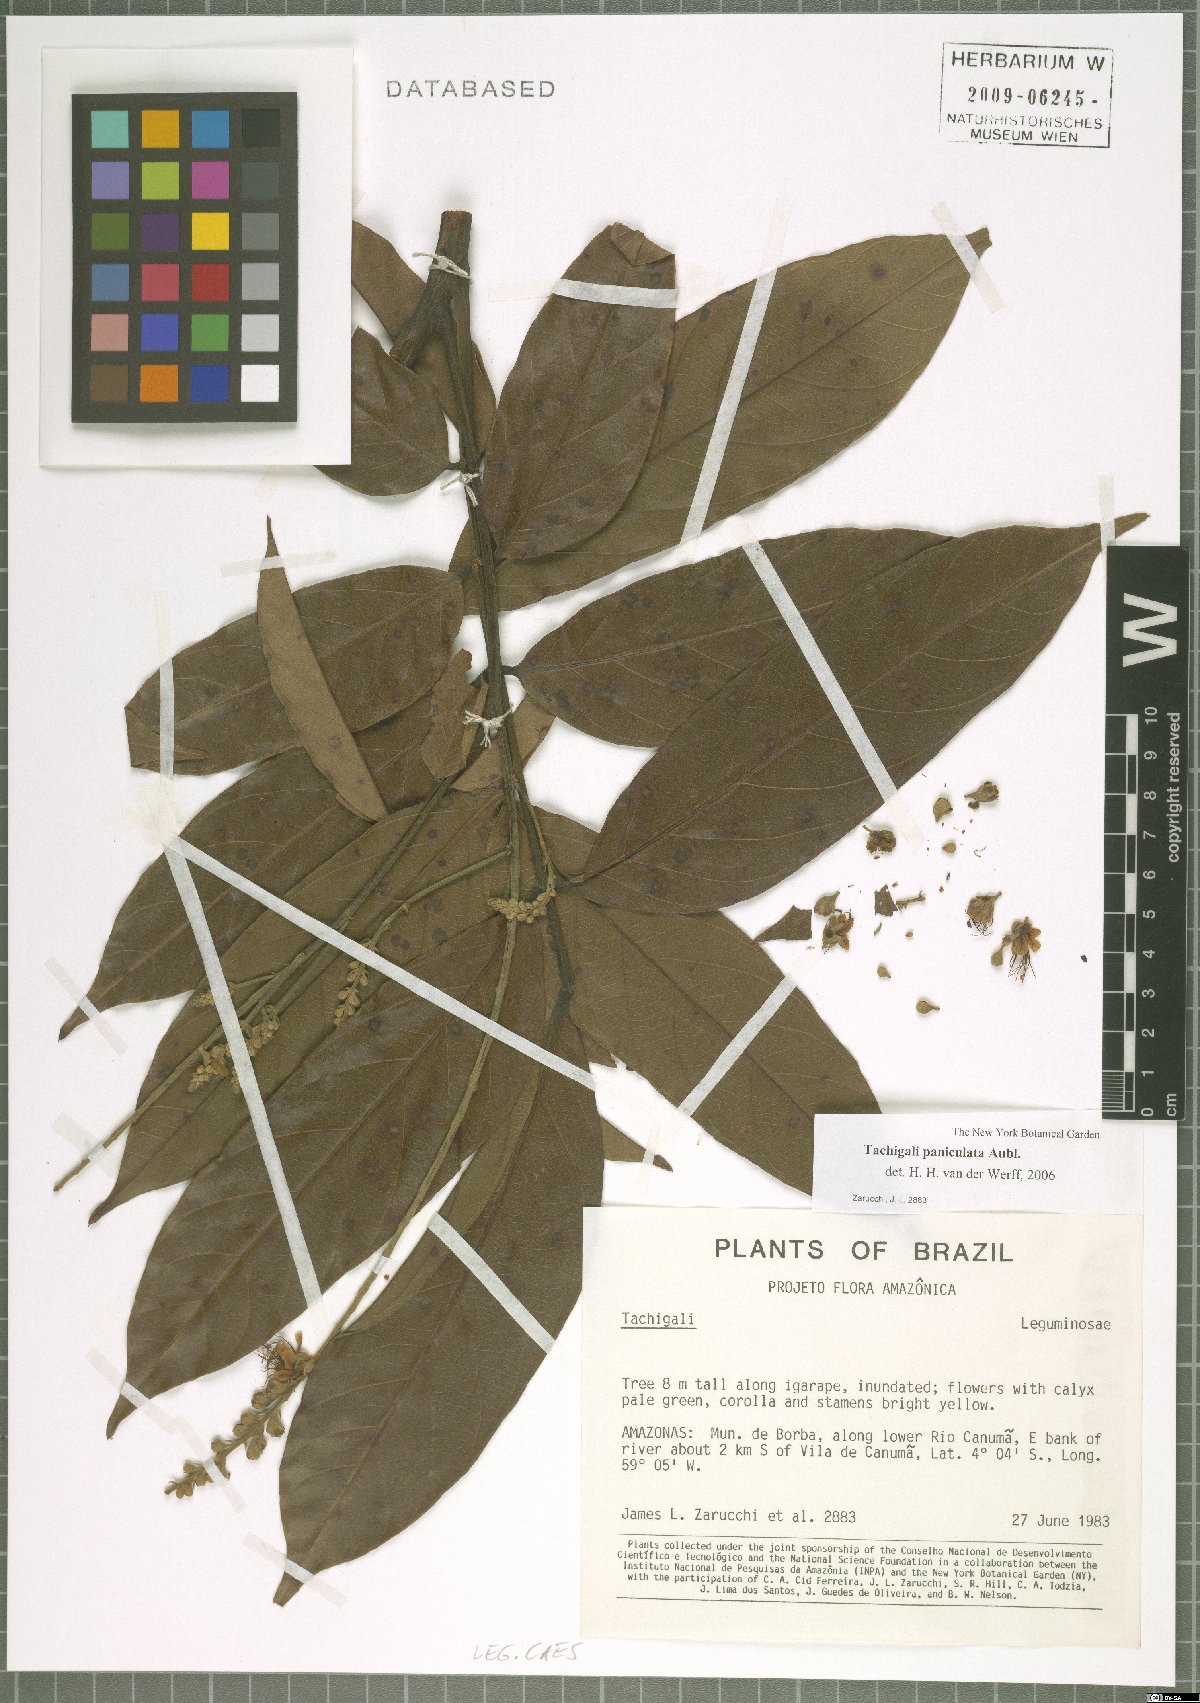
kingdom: Plantae
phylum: Tracheophyta
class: Magnoliopsida
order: Fabales
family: Fabaceae
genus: Tachigali
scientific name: Tachigali paniculata
